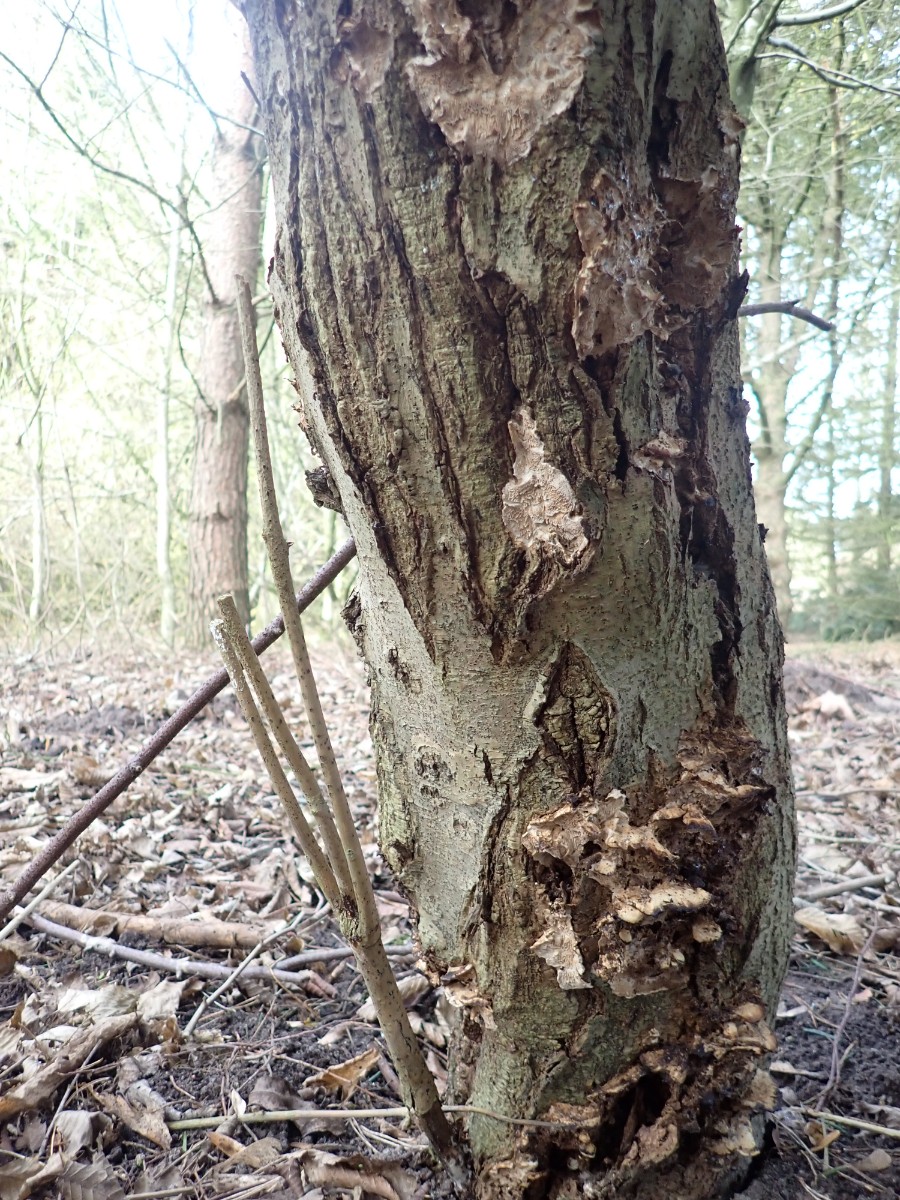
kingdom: Fungi
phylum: Basidiomycota
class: Agaricomycetes
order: Polyporales
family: Phanerochaetaceae
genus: Bjerkandera
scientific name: Bjerkandera fumosa
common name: grågul sodporesvamp
